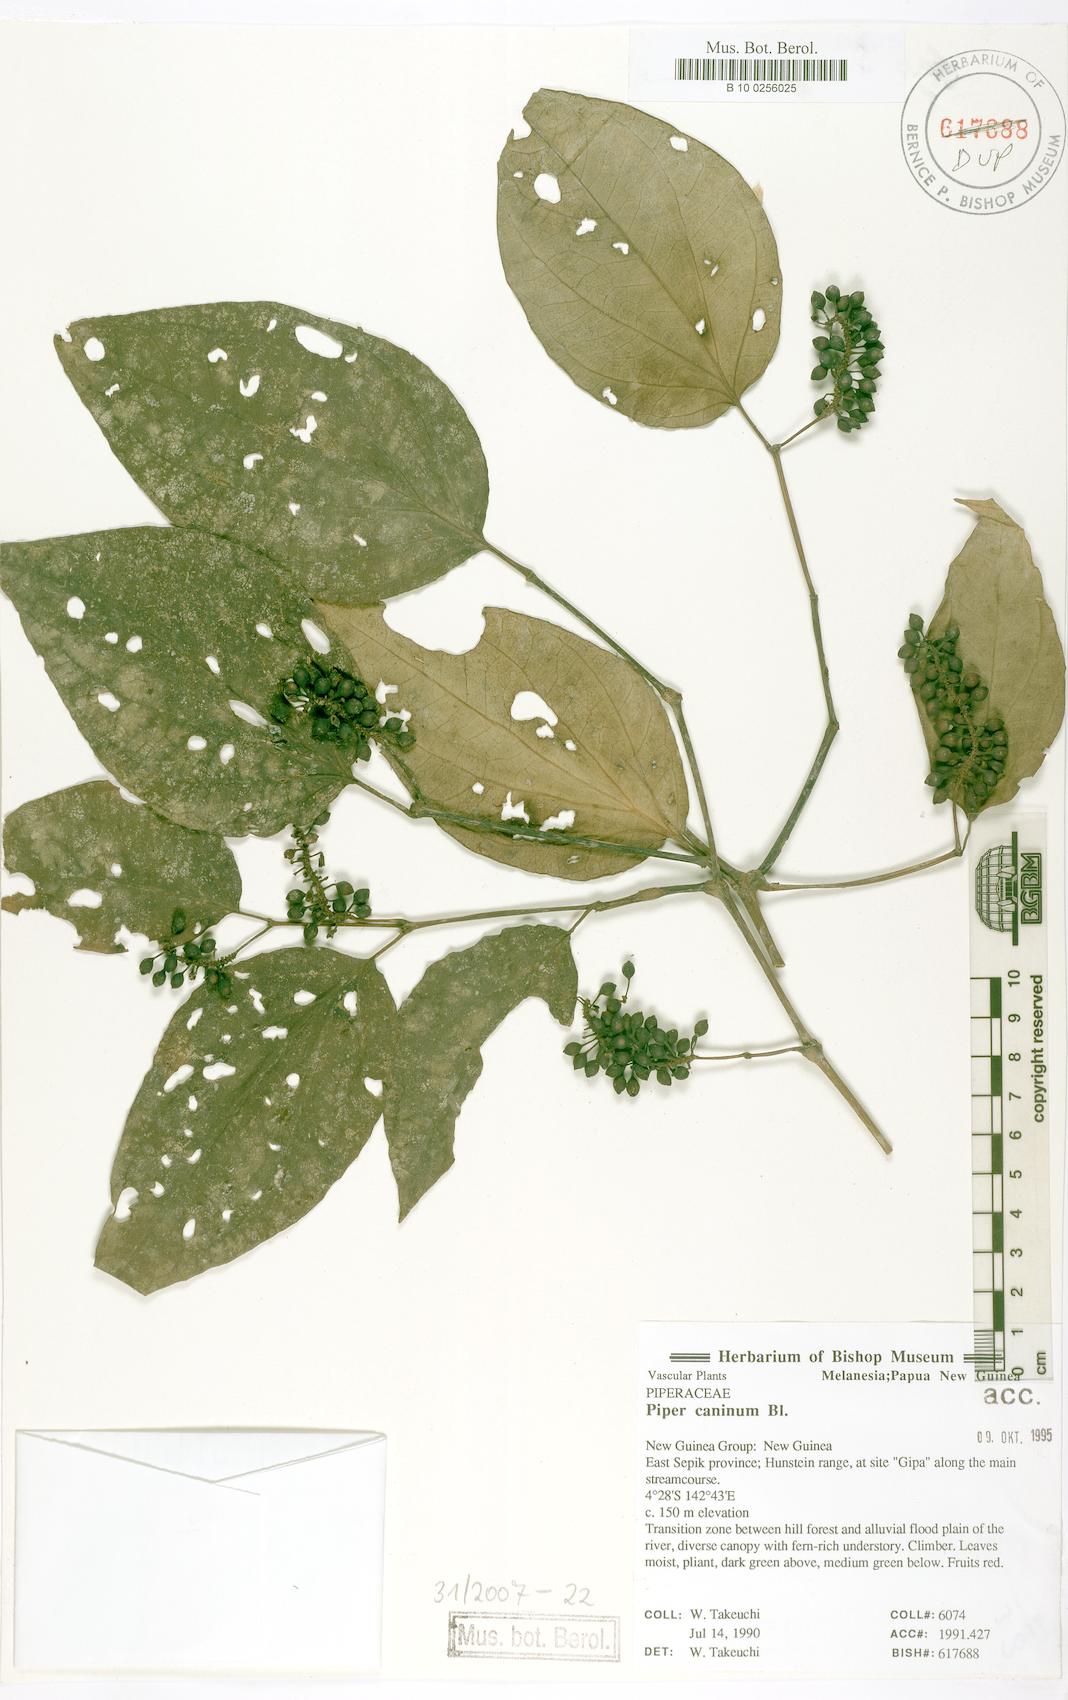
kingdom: Plantae
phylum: Tracheophyta
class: Magnoliopsida
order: Piperales
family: Piperaceae
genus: Piper
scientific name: Piper lanatum
